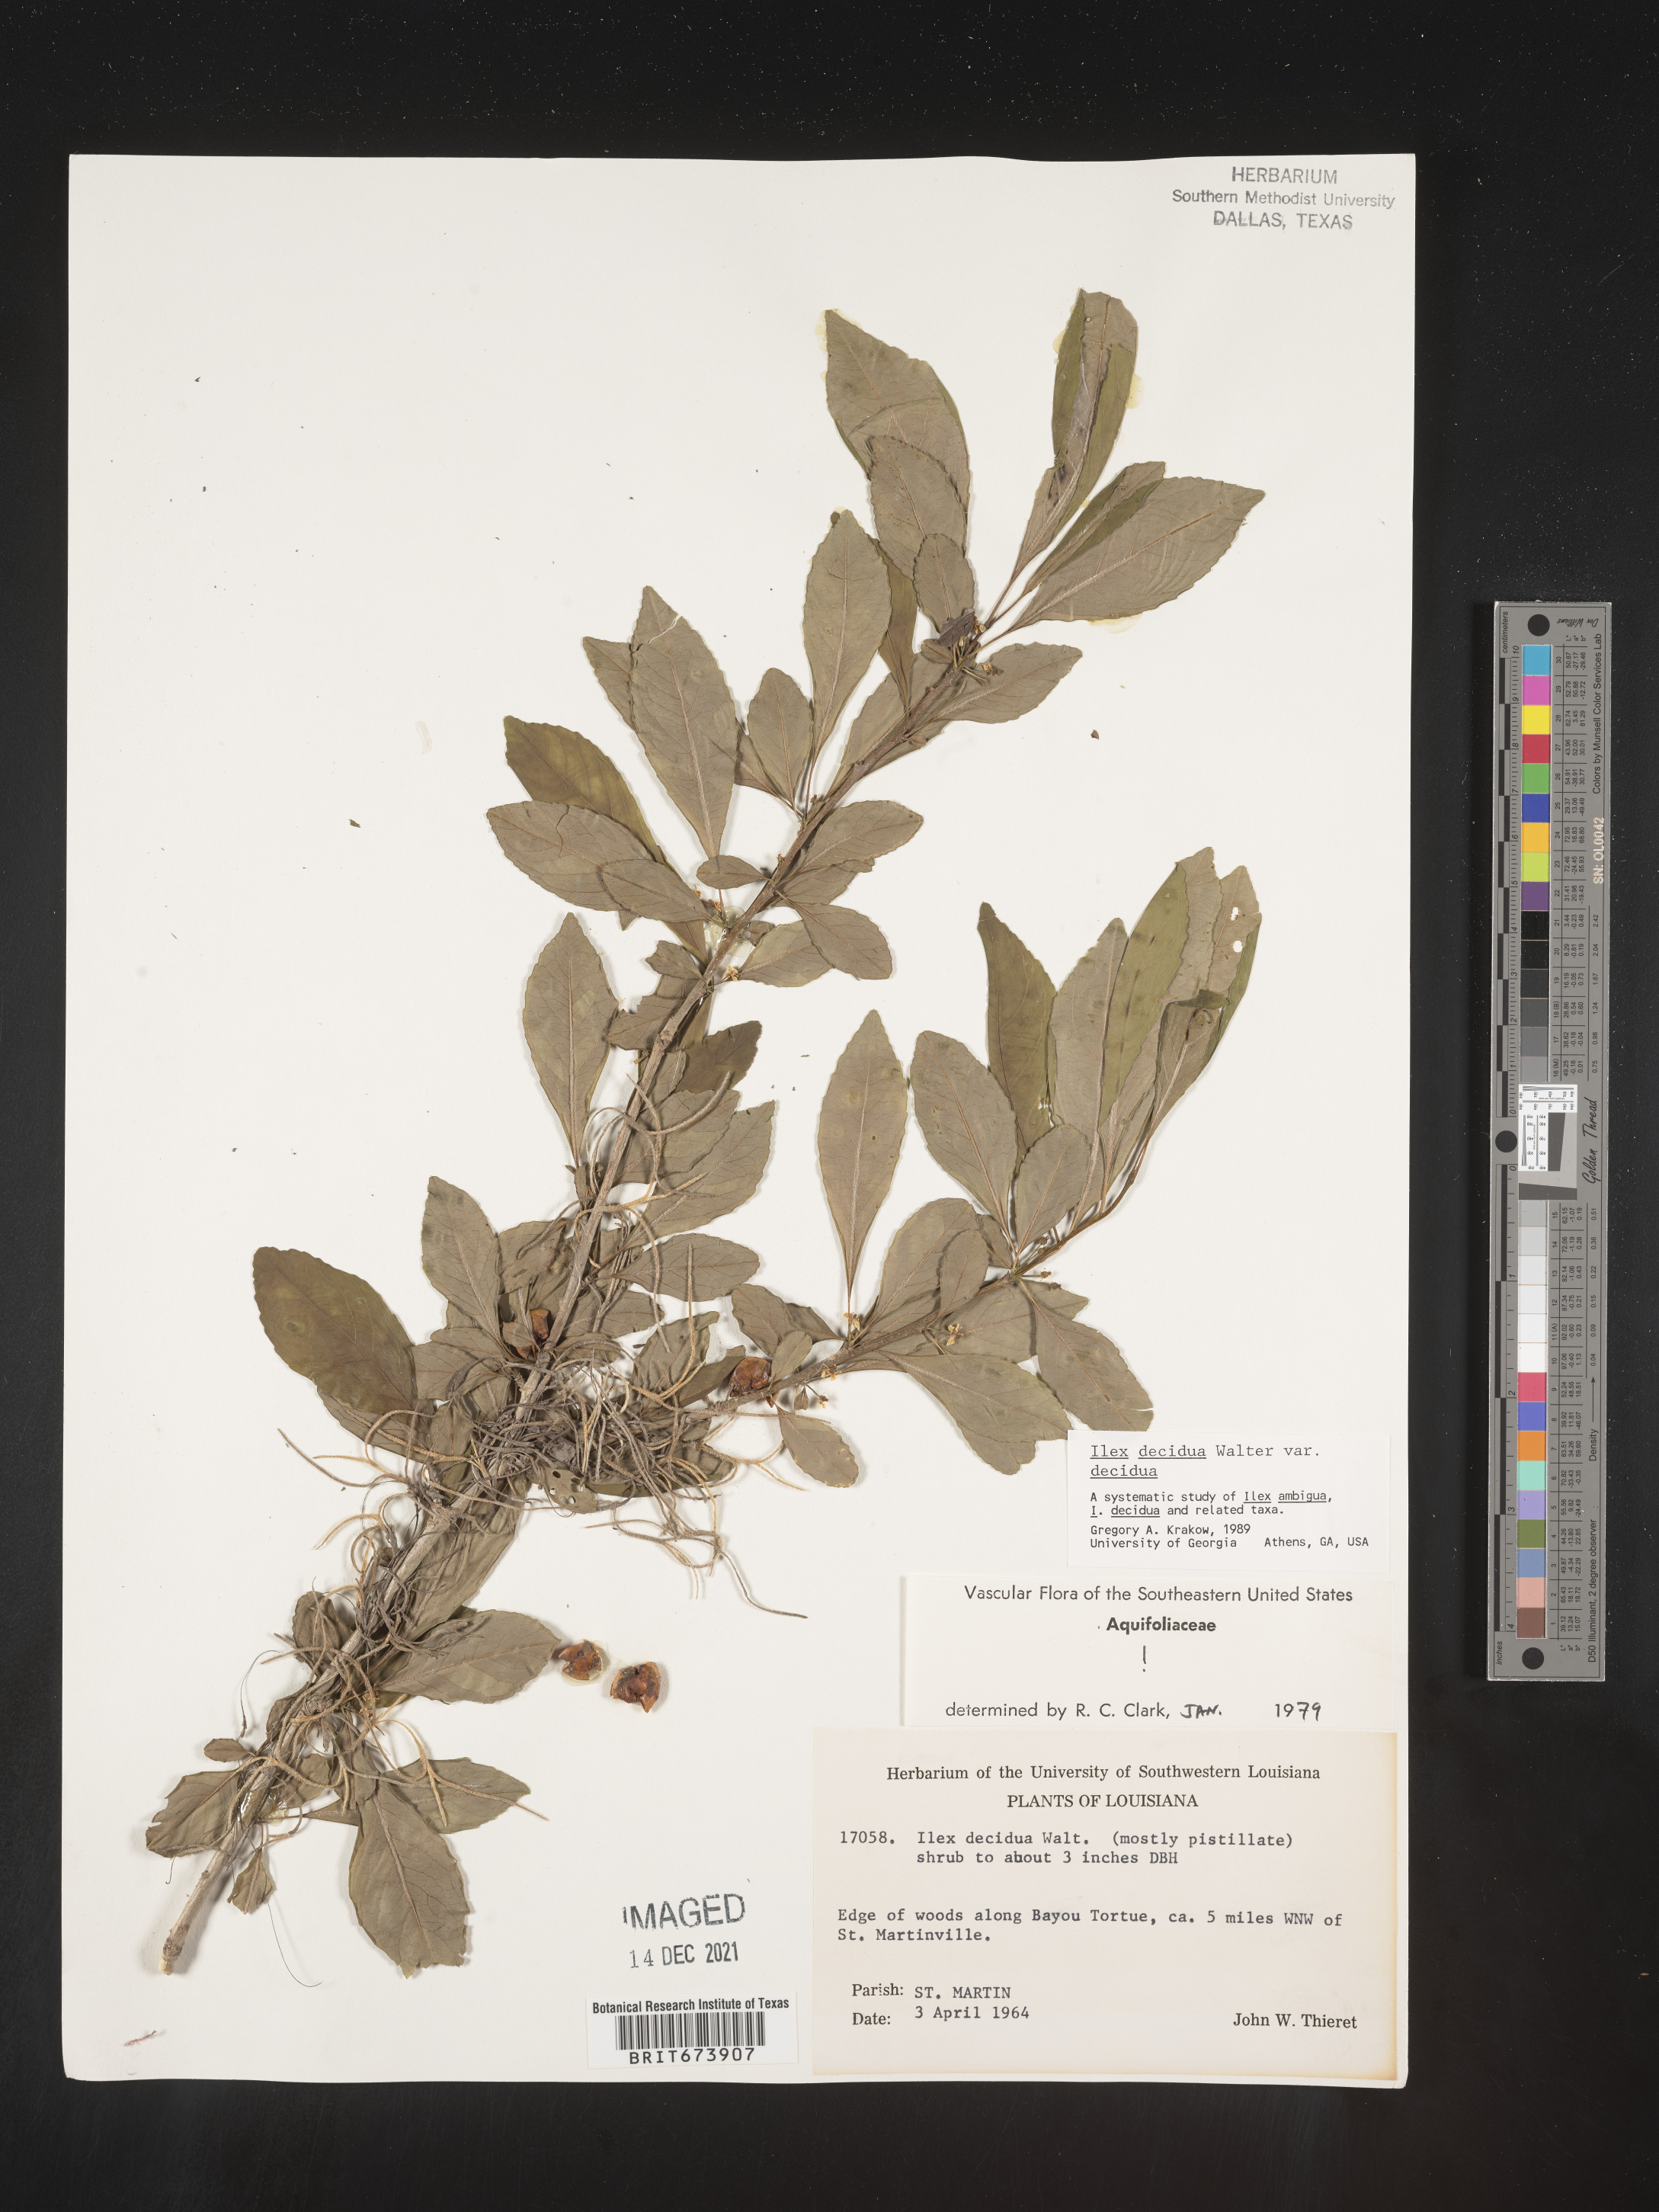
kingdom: Plantae
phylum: Tracheophyta
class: Magnoliopsida
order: Aquifoliales
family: Aquifoliaceae
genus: Ilex
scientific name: Ilex decidua
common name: Possum-haw
